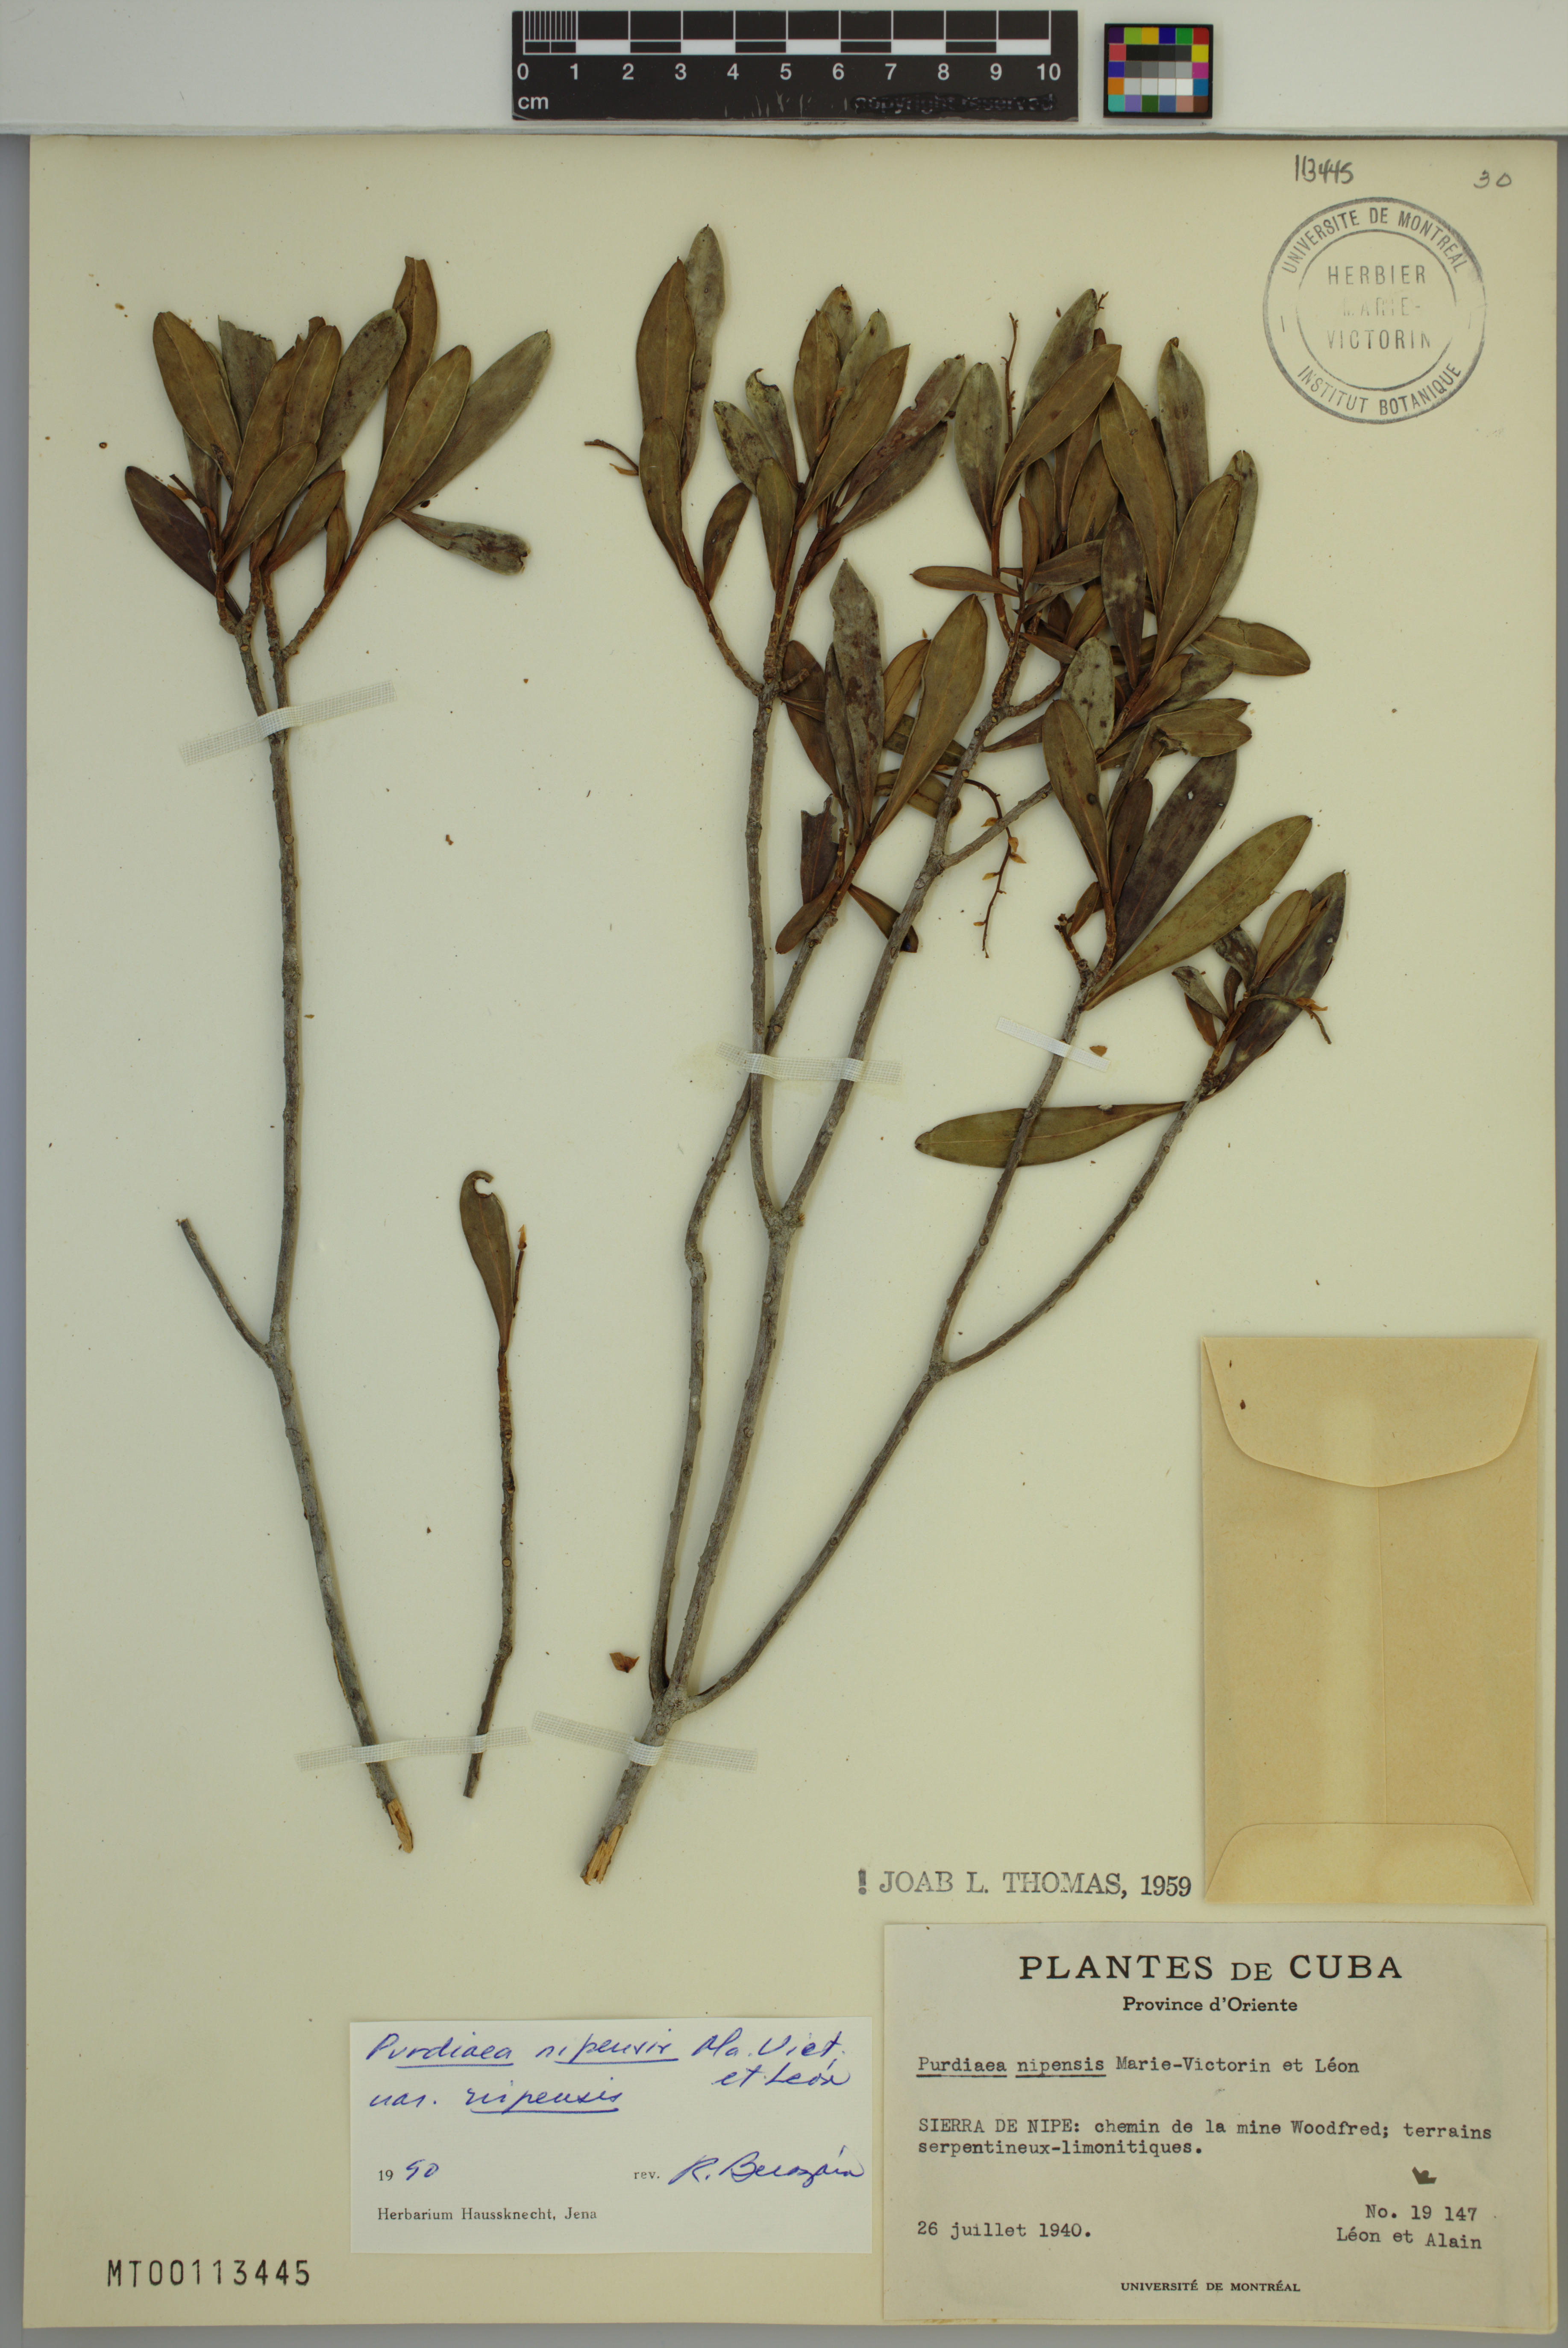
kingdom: Plantae
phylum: Tracheophyta
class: Magnoliopsida
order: Ericales
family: Clethraceae
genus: Purdiaea
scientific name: Purdiaea nipensis
